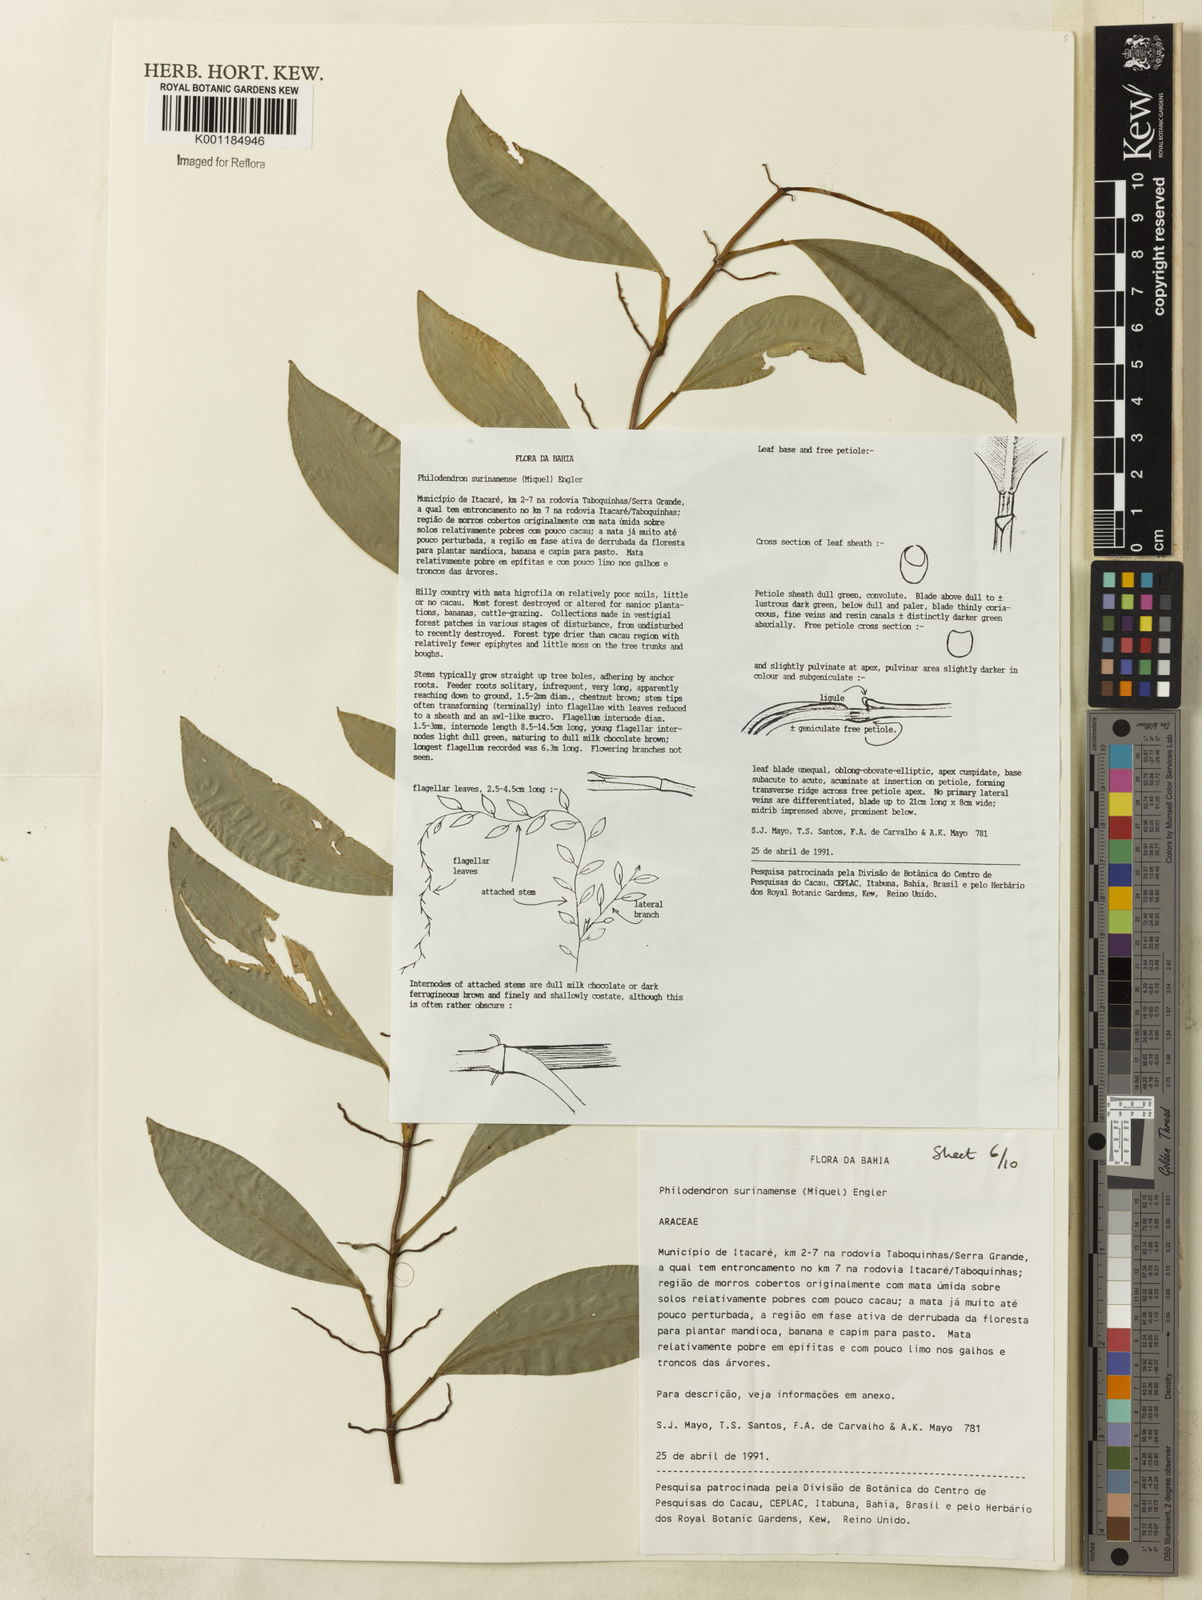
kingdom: Plantae
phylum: Tracheophyta
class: Liliopsida
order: Alismatales
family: Araceae
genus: Philodendron
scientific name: Philodendron surinamense
